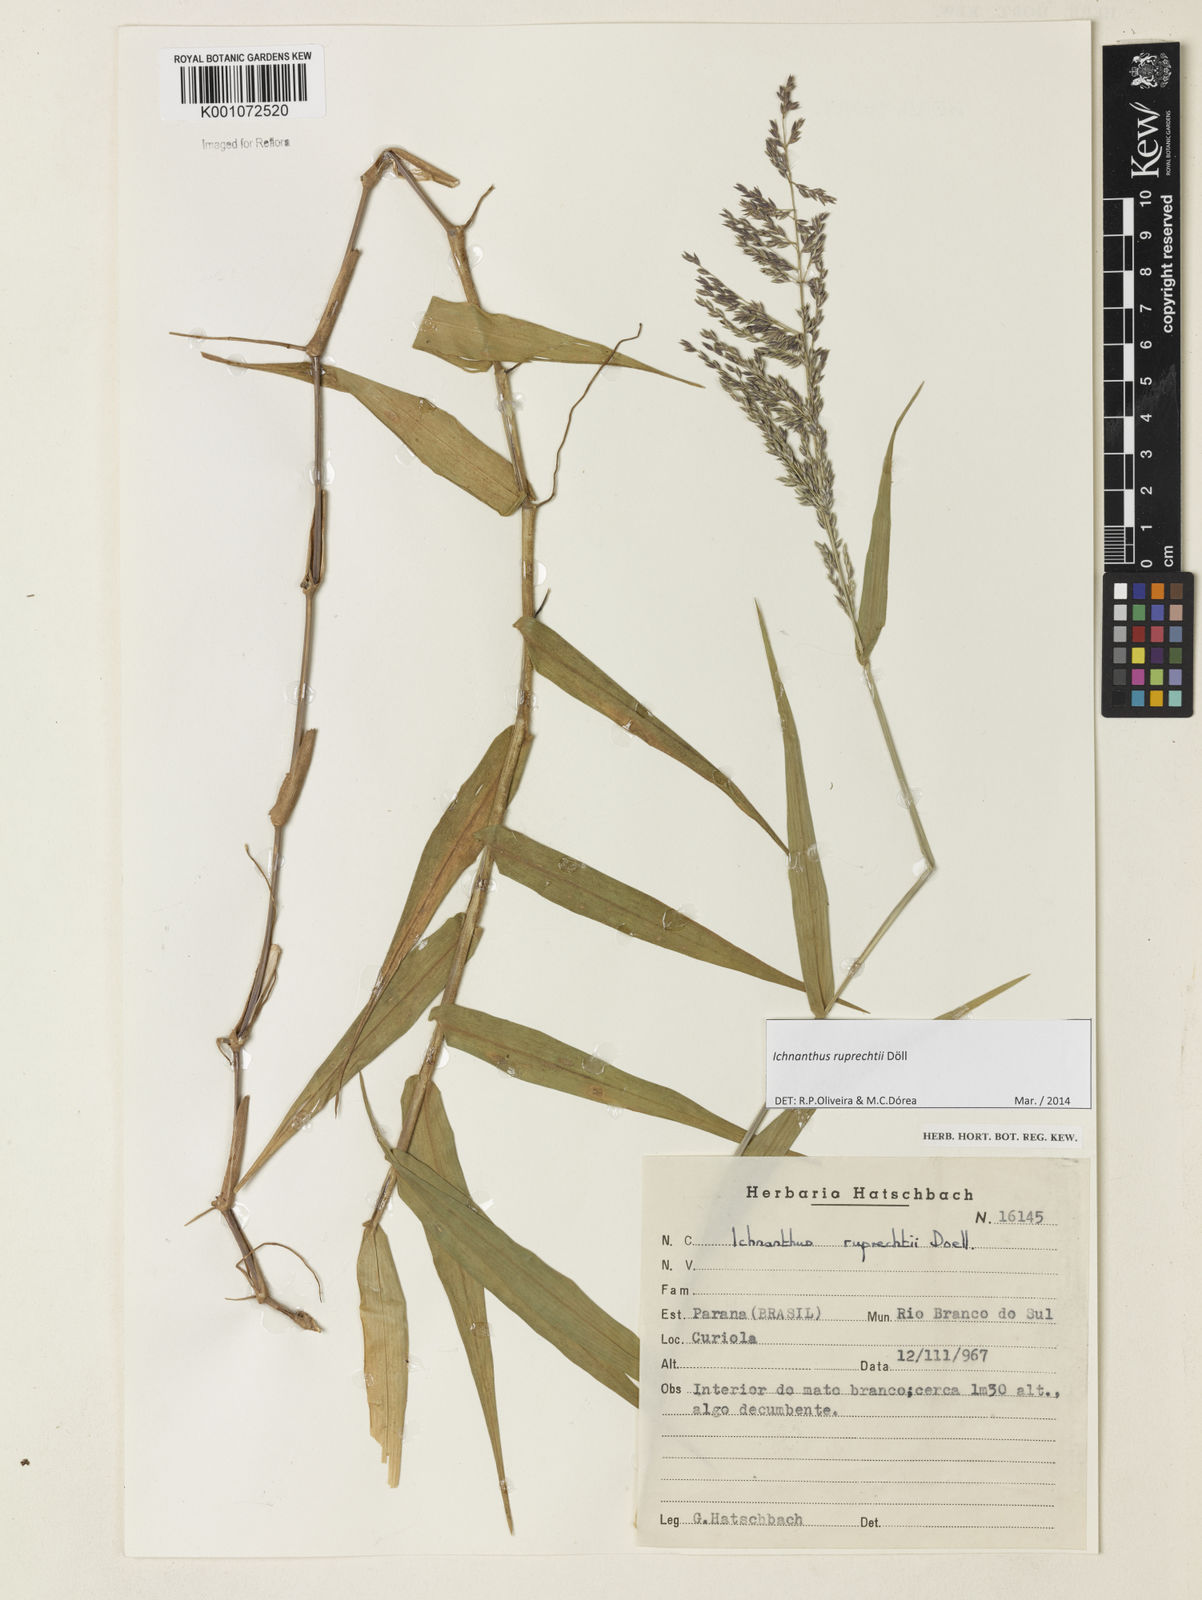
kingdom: Plantae
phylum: Tracheophyta
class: Liliopsida
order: Poales
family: Poaceae
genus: Ichnanthus
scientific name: Ichnanthus
